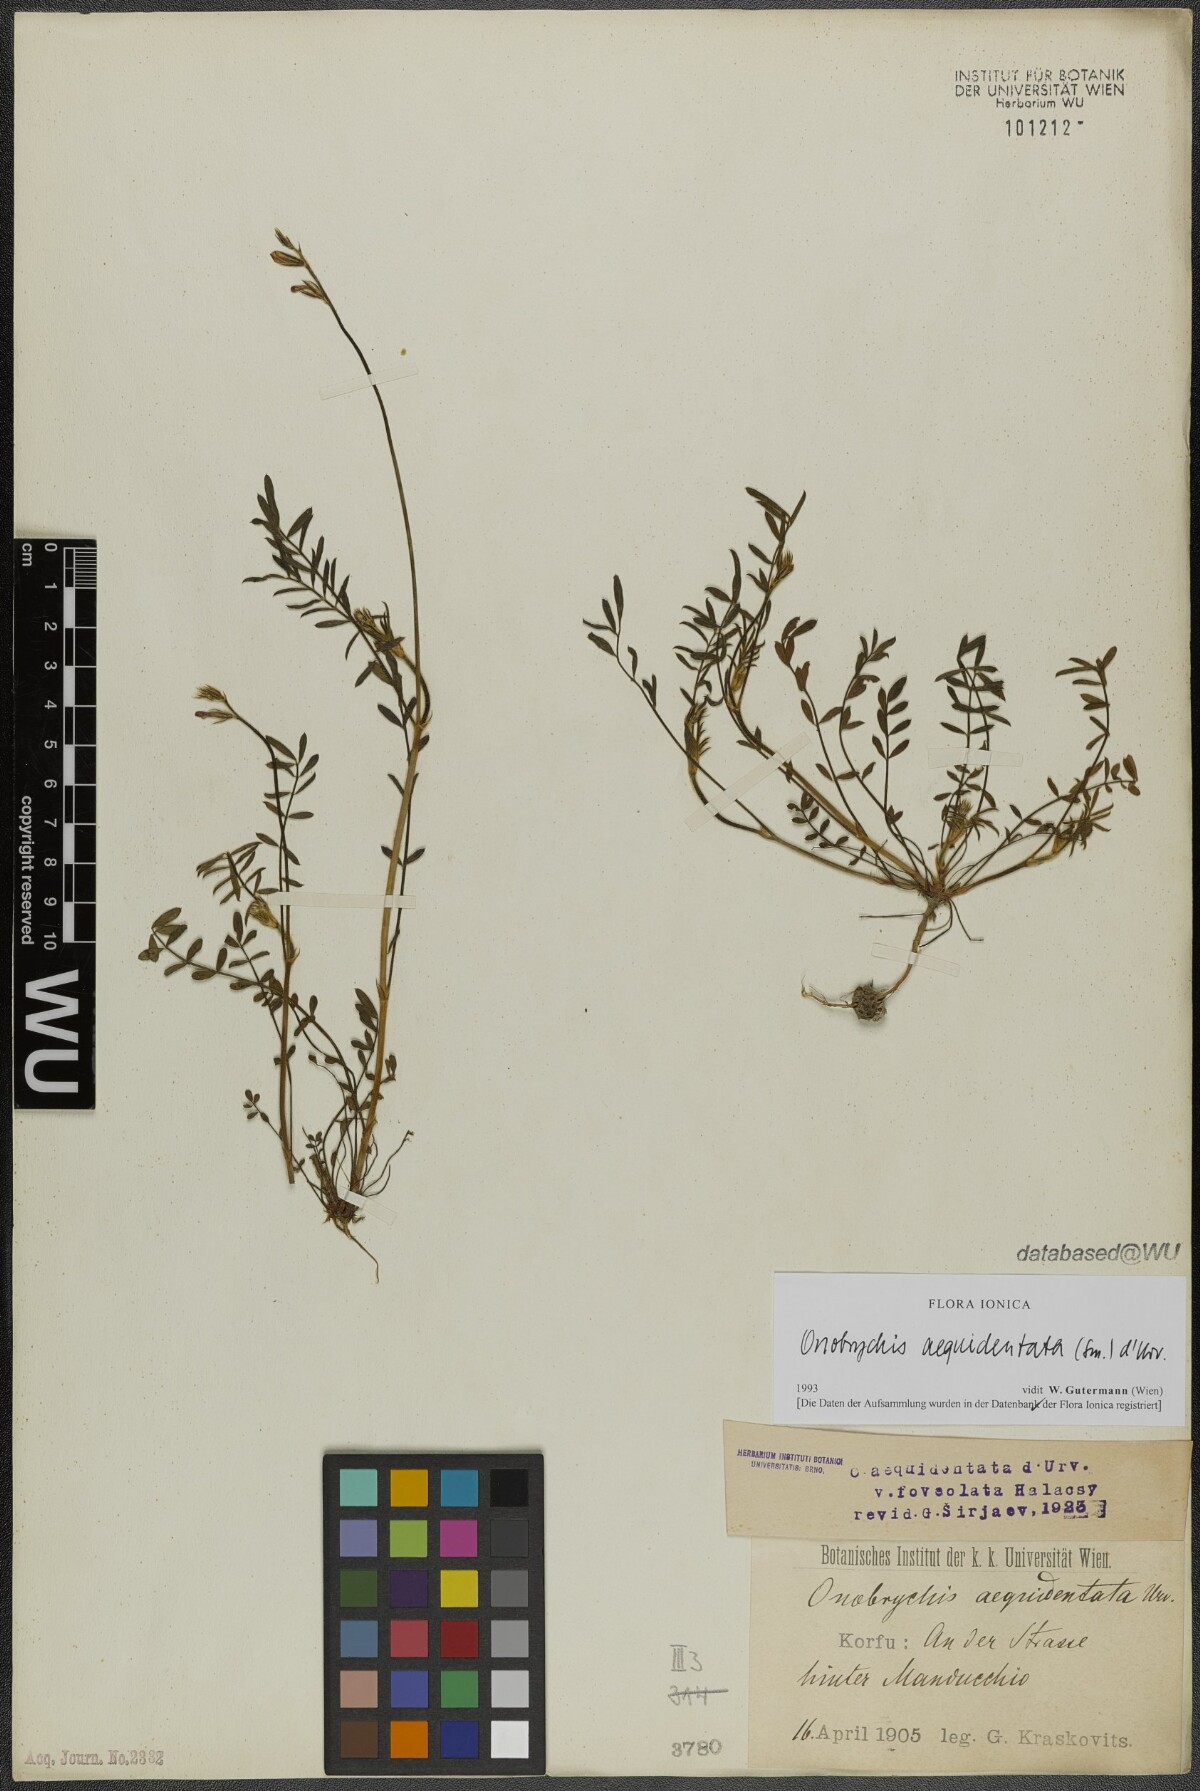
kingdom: Plantae
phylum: Tracheophyta
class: Magnoliopsida
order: Fabales
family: Fabaceae
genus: Onobrychis
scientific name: Onobrychis aequidentata
